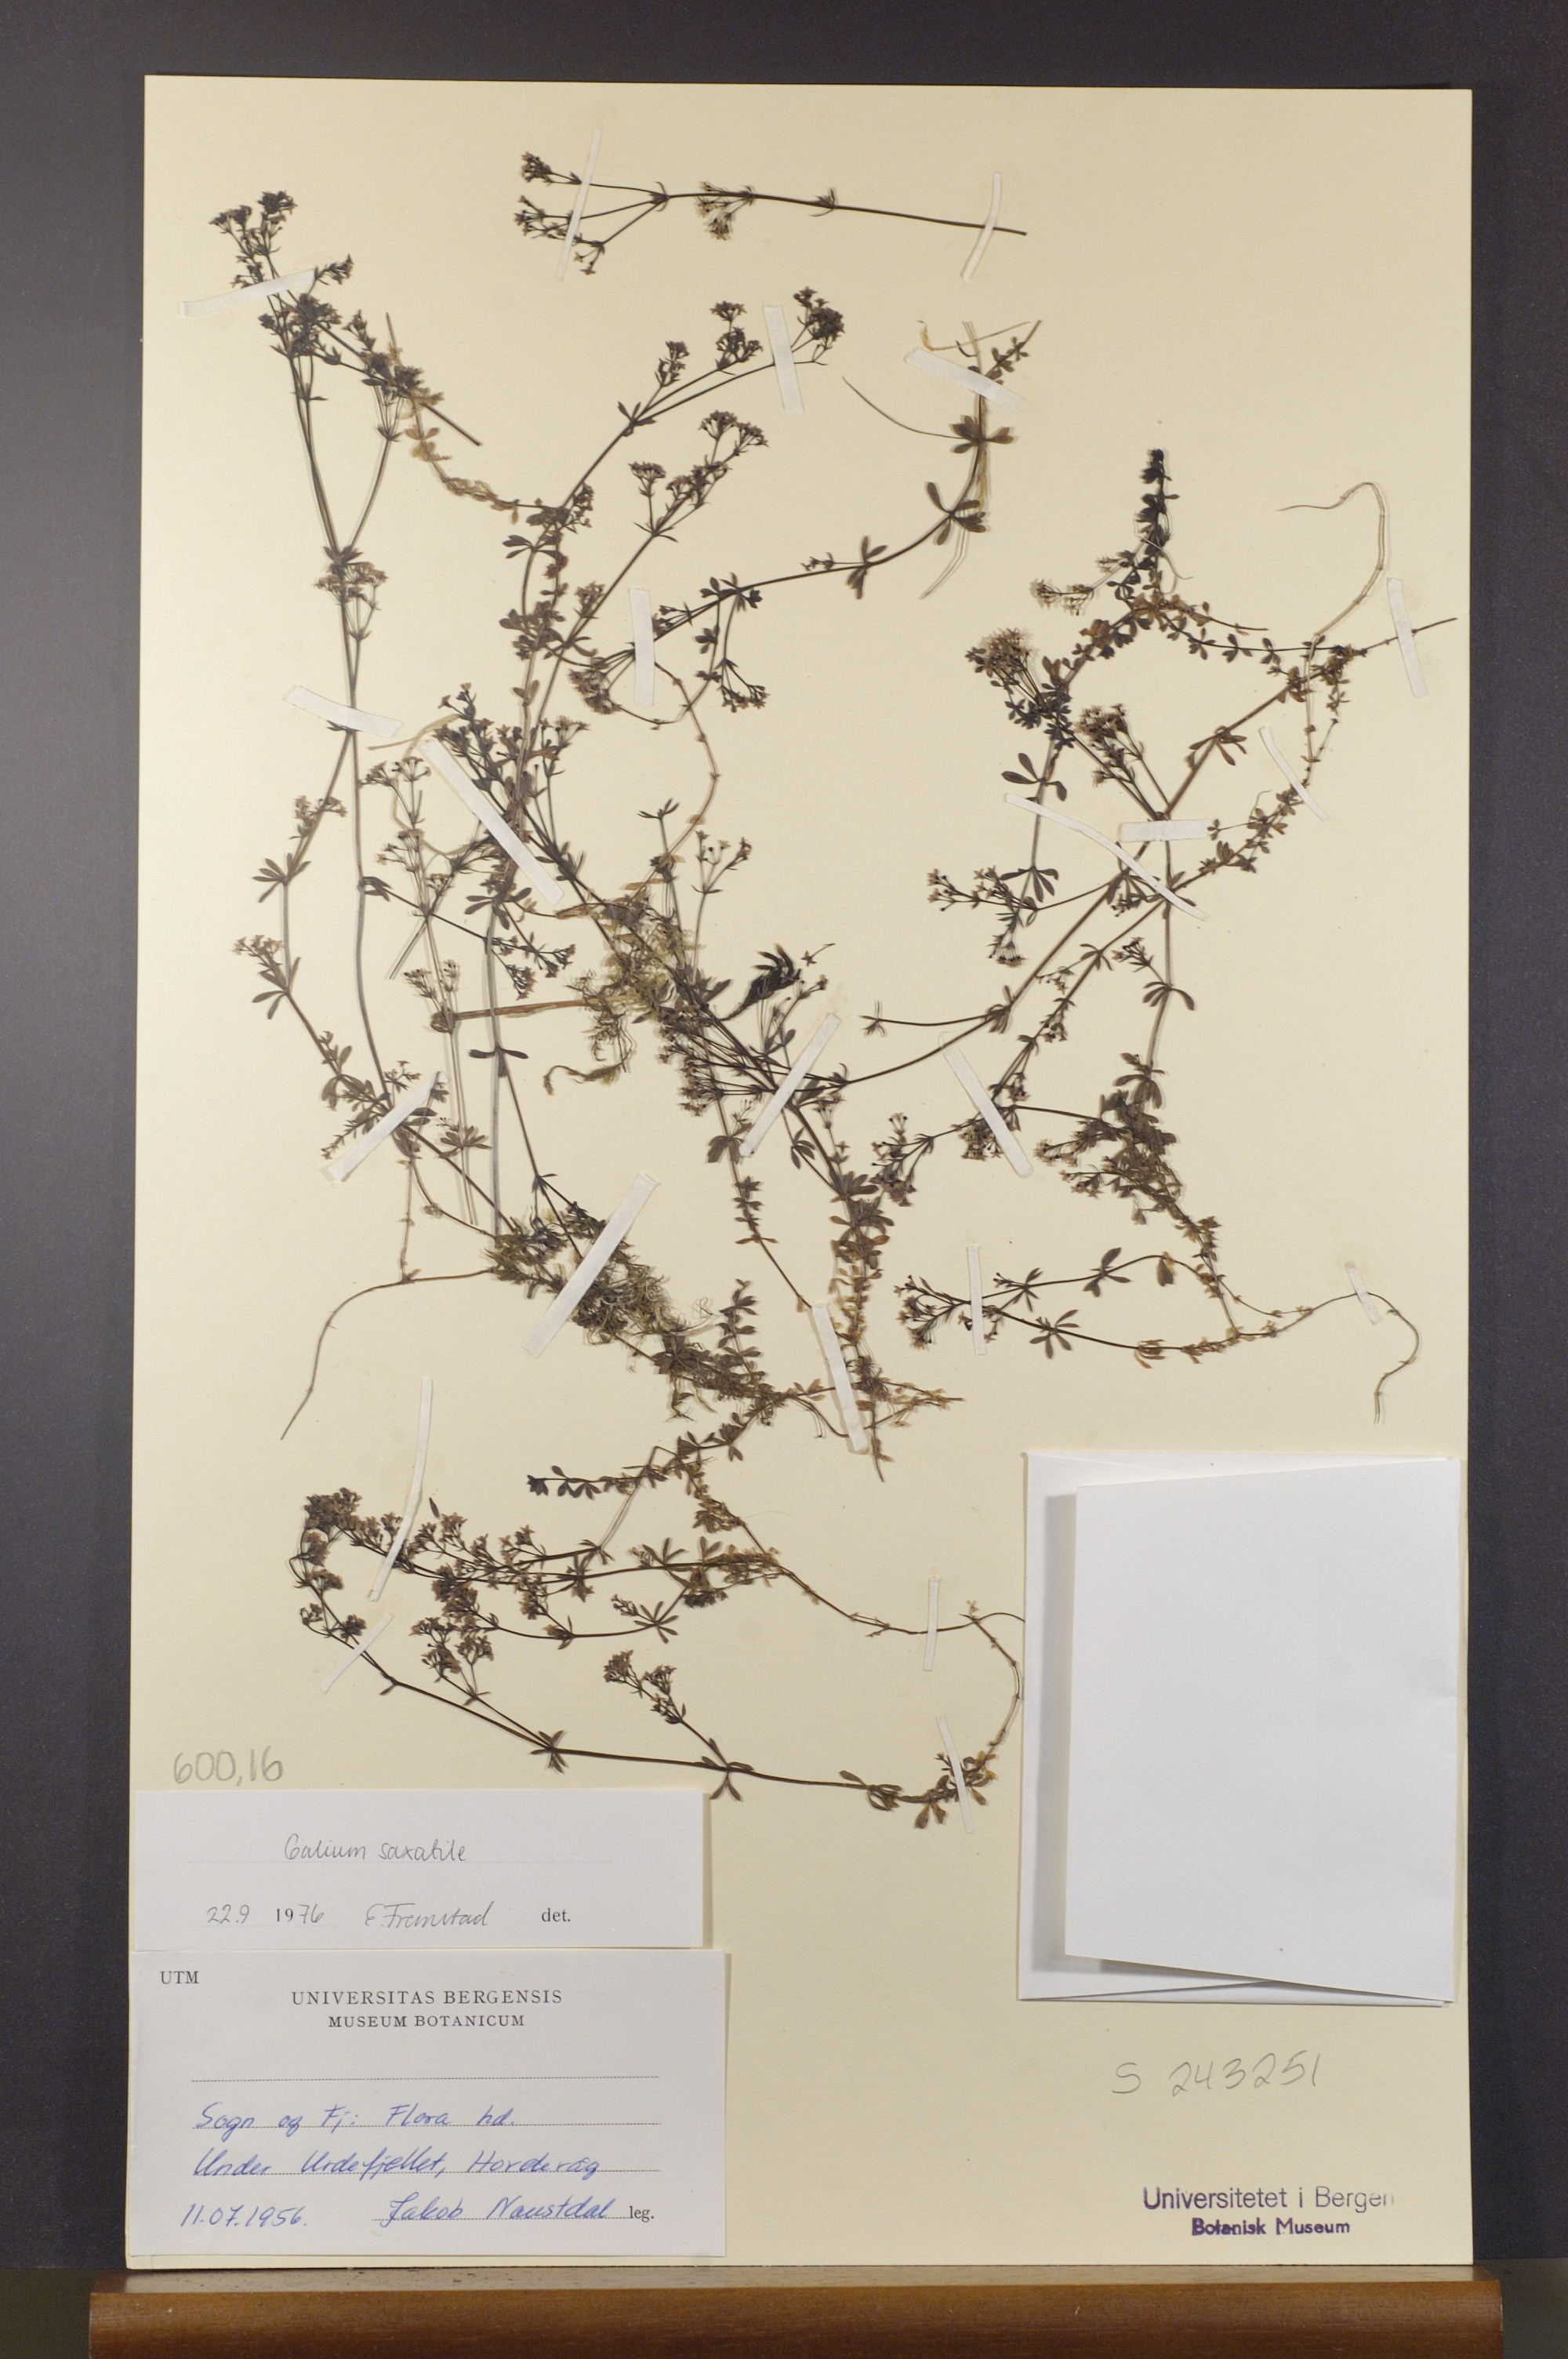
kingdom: Plantae
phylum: Tracheophyta
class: Magnoliopsida
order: Gentianales
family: Rubiaceae
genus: Galium
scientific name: Galium saxatile
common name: Heath bedstraw
